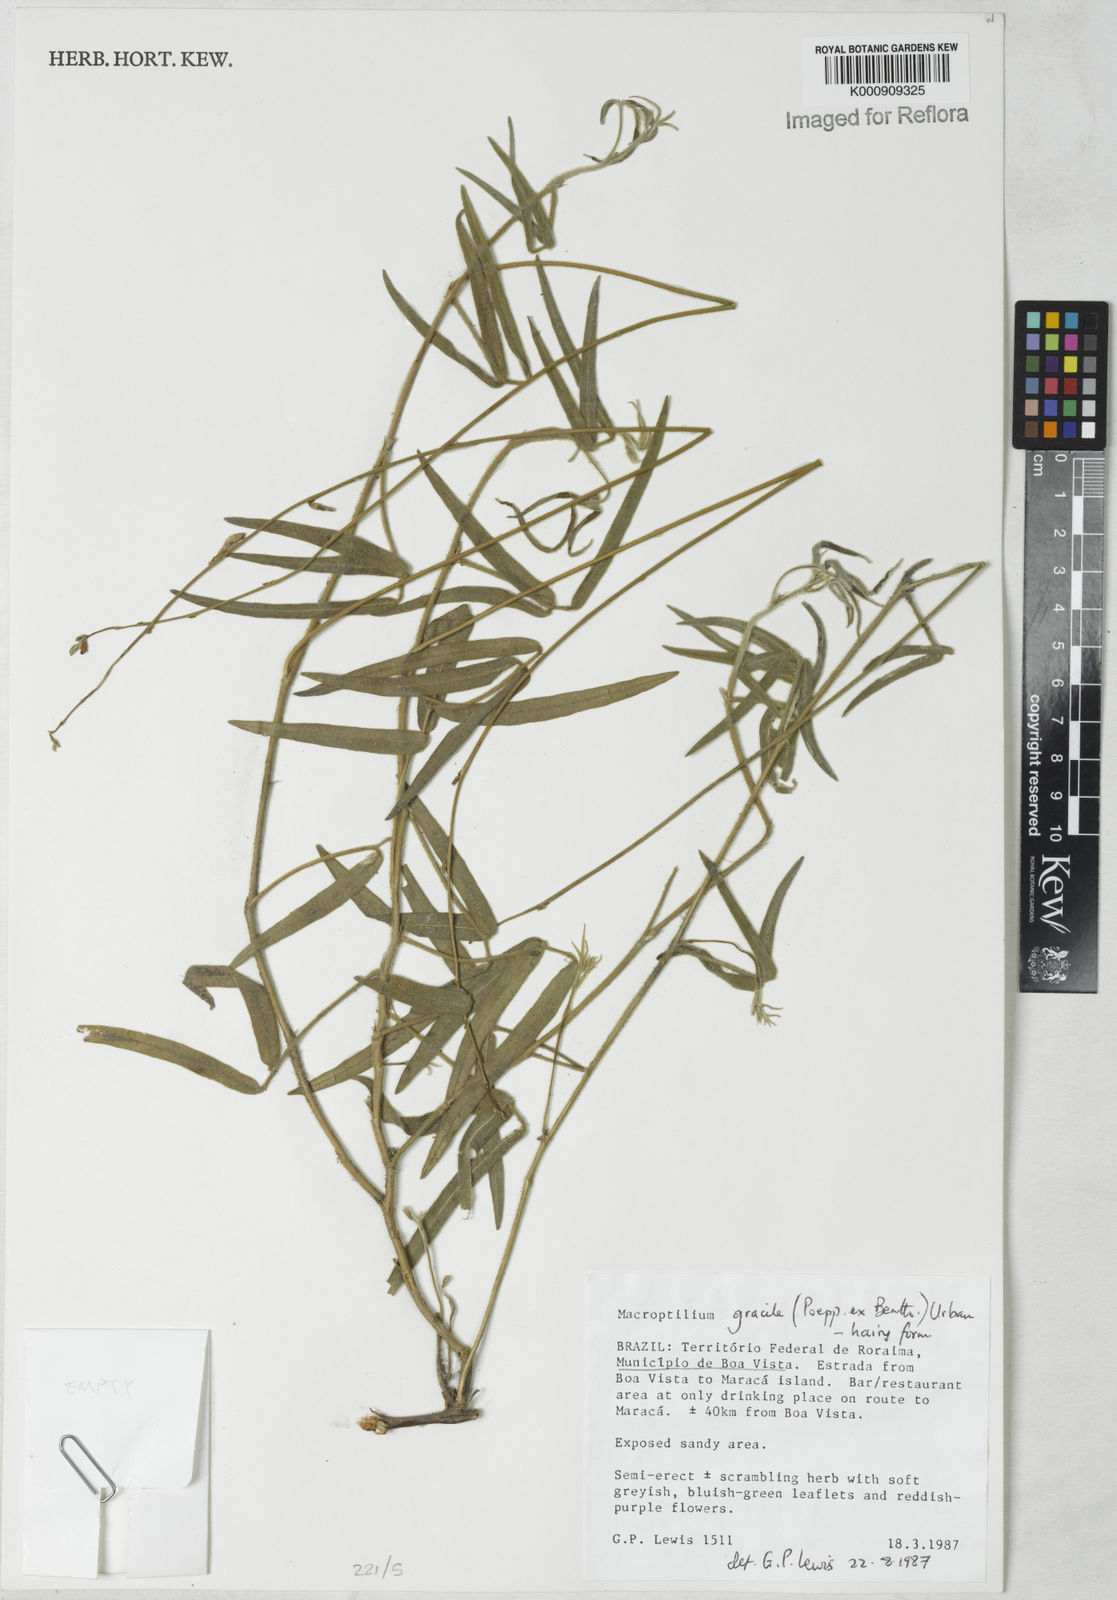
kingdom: Plantae
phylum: Tracheophyta
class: Magnoliopsida
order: Fabales
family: Fabaceae
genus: Macroptilium
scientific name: Macroptilium gracile
